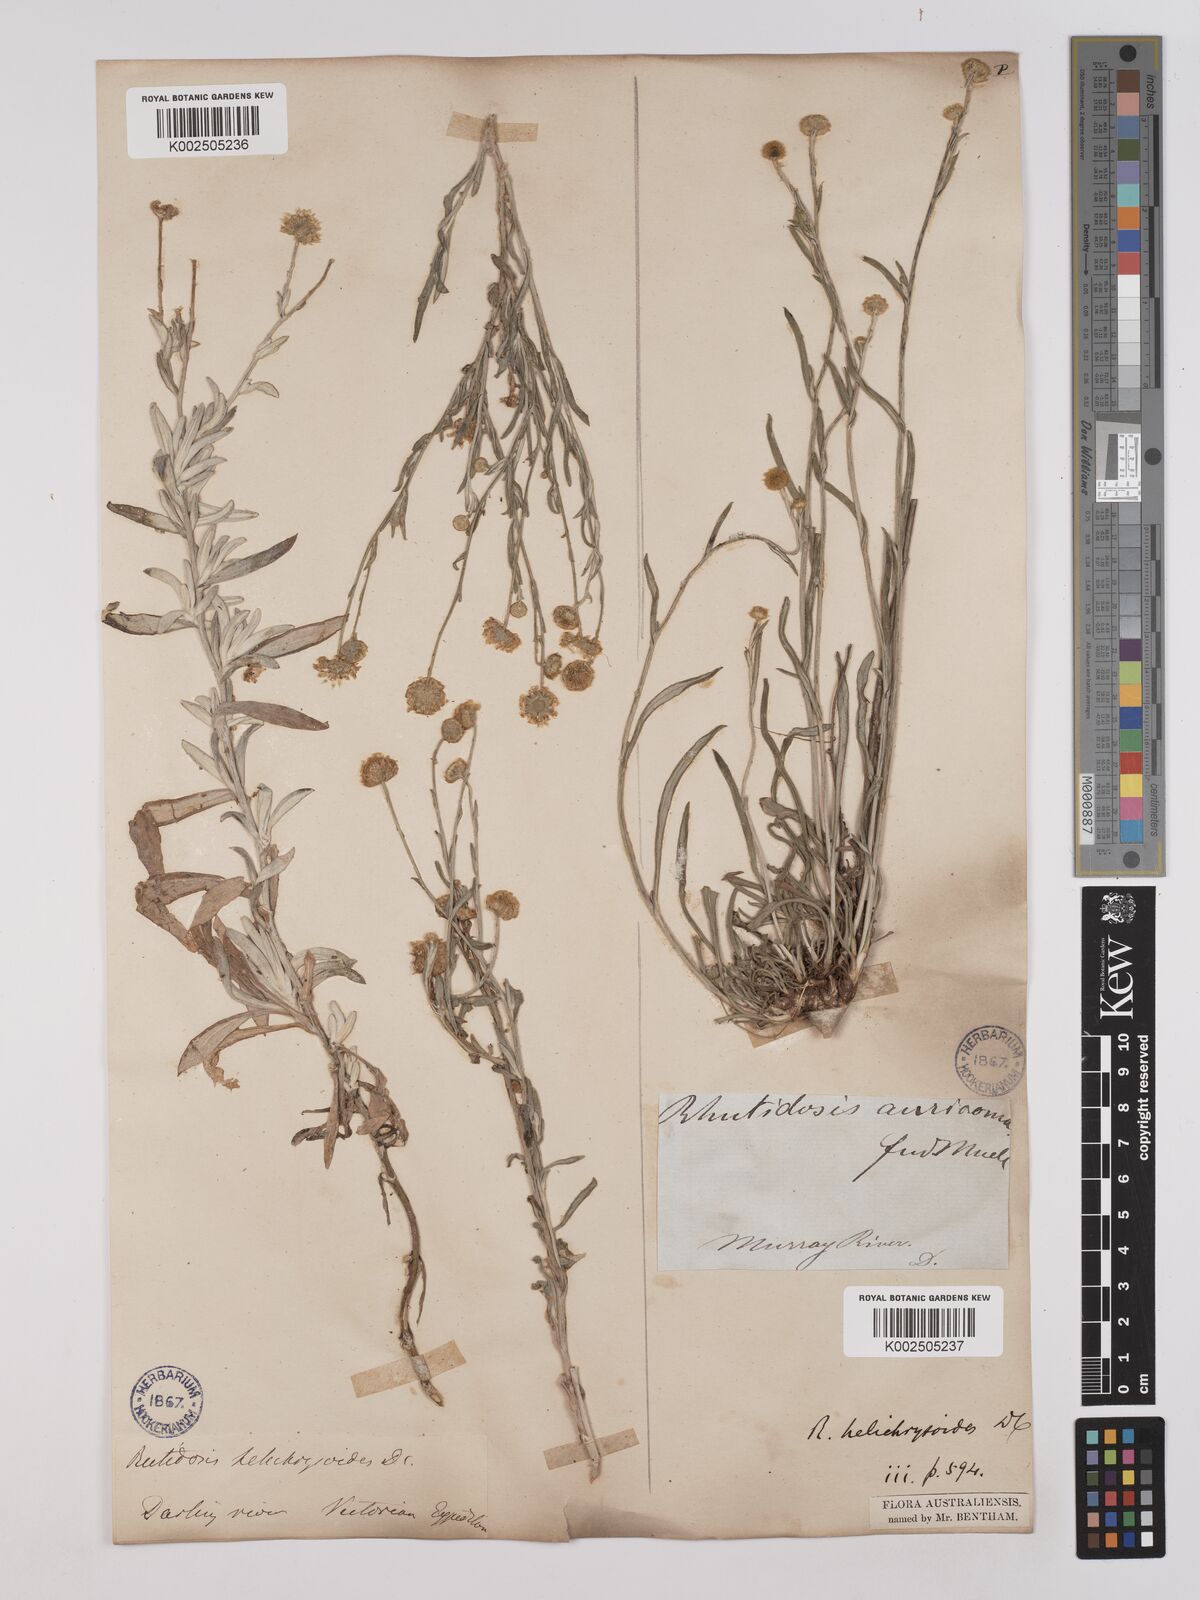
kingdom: Plantae
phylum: Tracheophyta
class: Magnoliopsida
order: Asterales
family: Asteraceae
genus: Rutidosis
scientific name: Rutidosis helichrysoides
